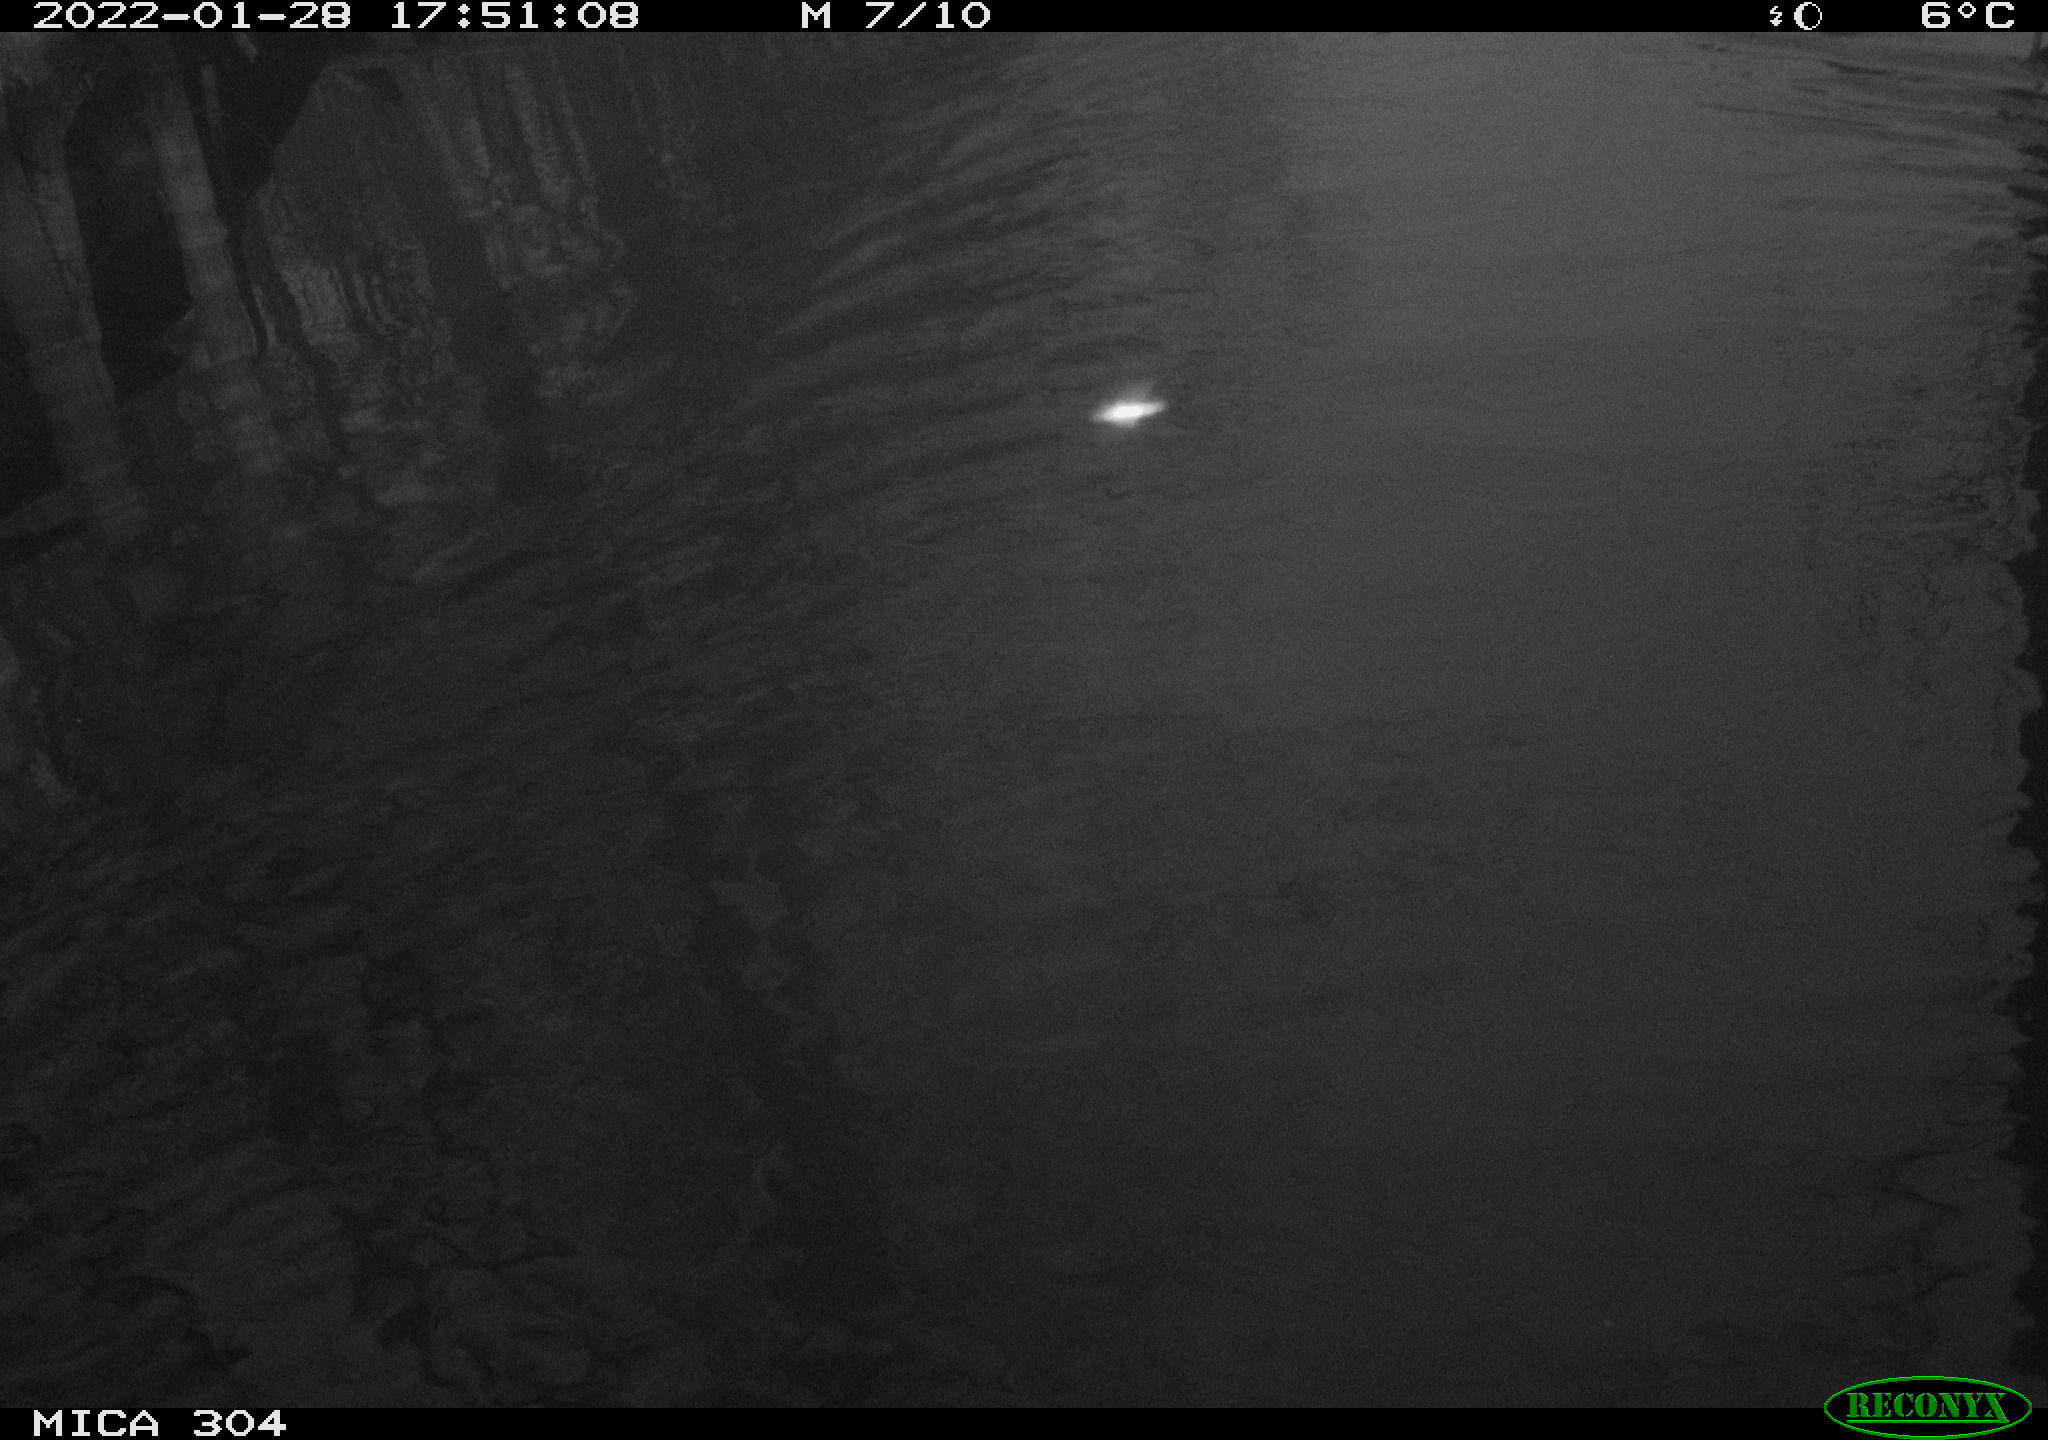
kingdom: Animalia
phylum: Chordata
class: Aves
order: Anseriformes
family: Anatidae
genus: Anas
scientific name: Anas
